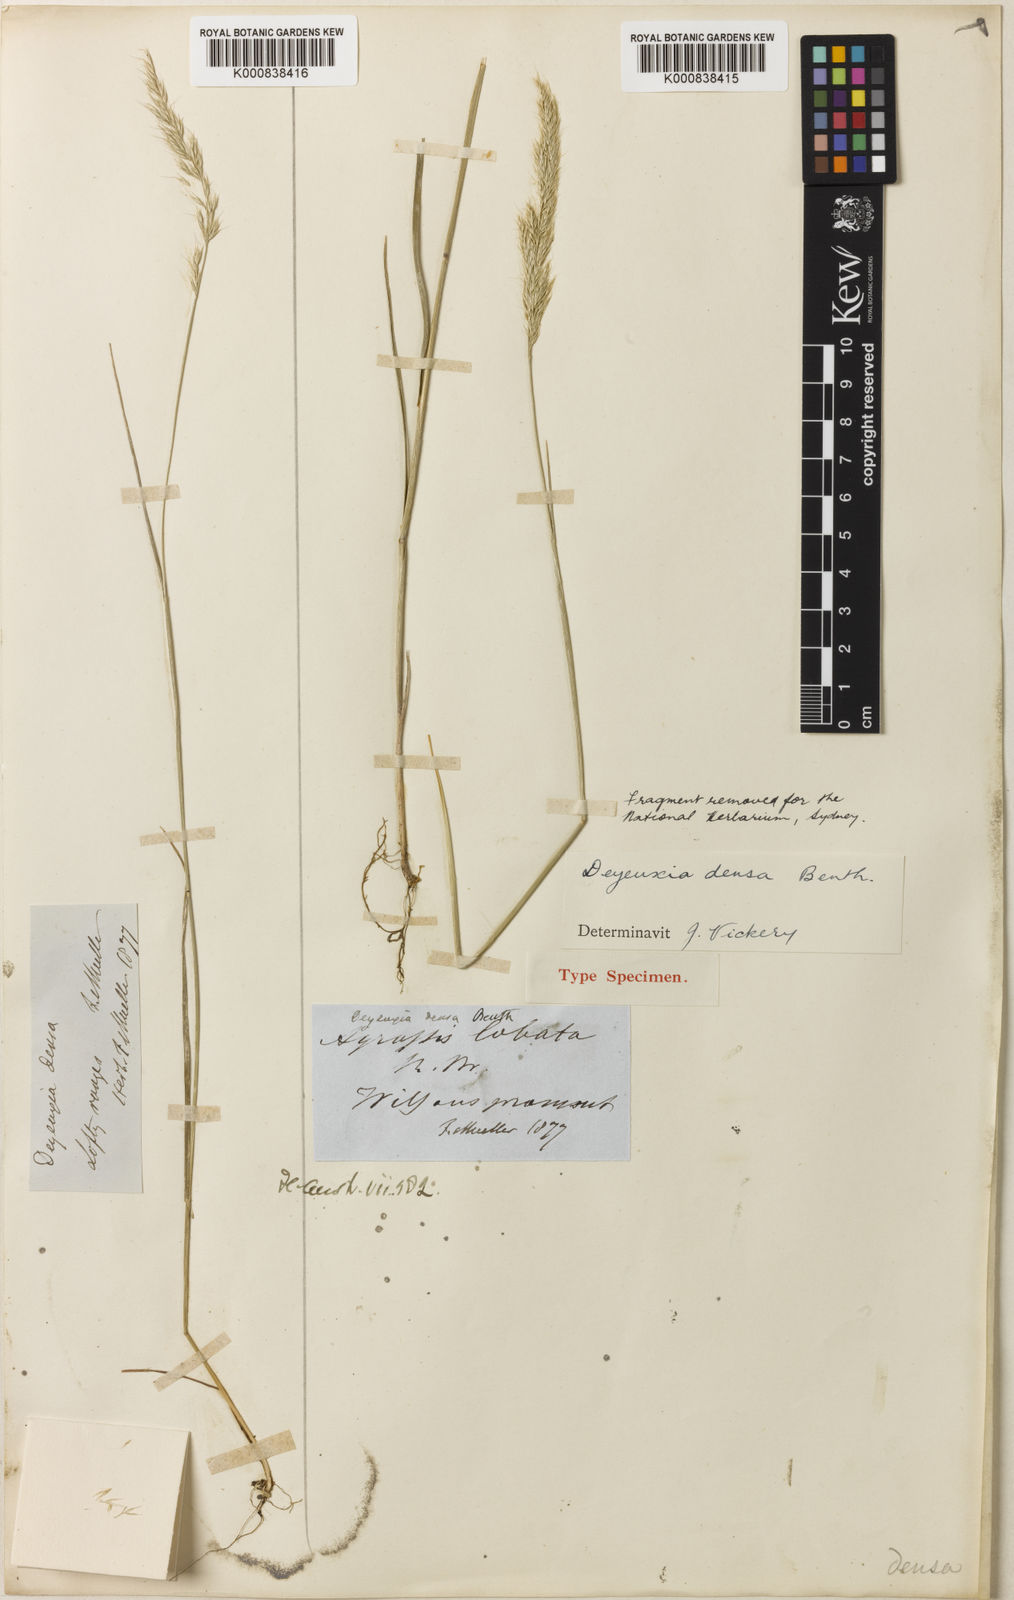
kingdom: Plantae
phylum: Tracheophyta
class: Liliopsida
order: Poales
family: Poaceae
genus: Calamagrostis
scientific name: Calamagrostis austrodensa
